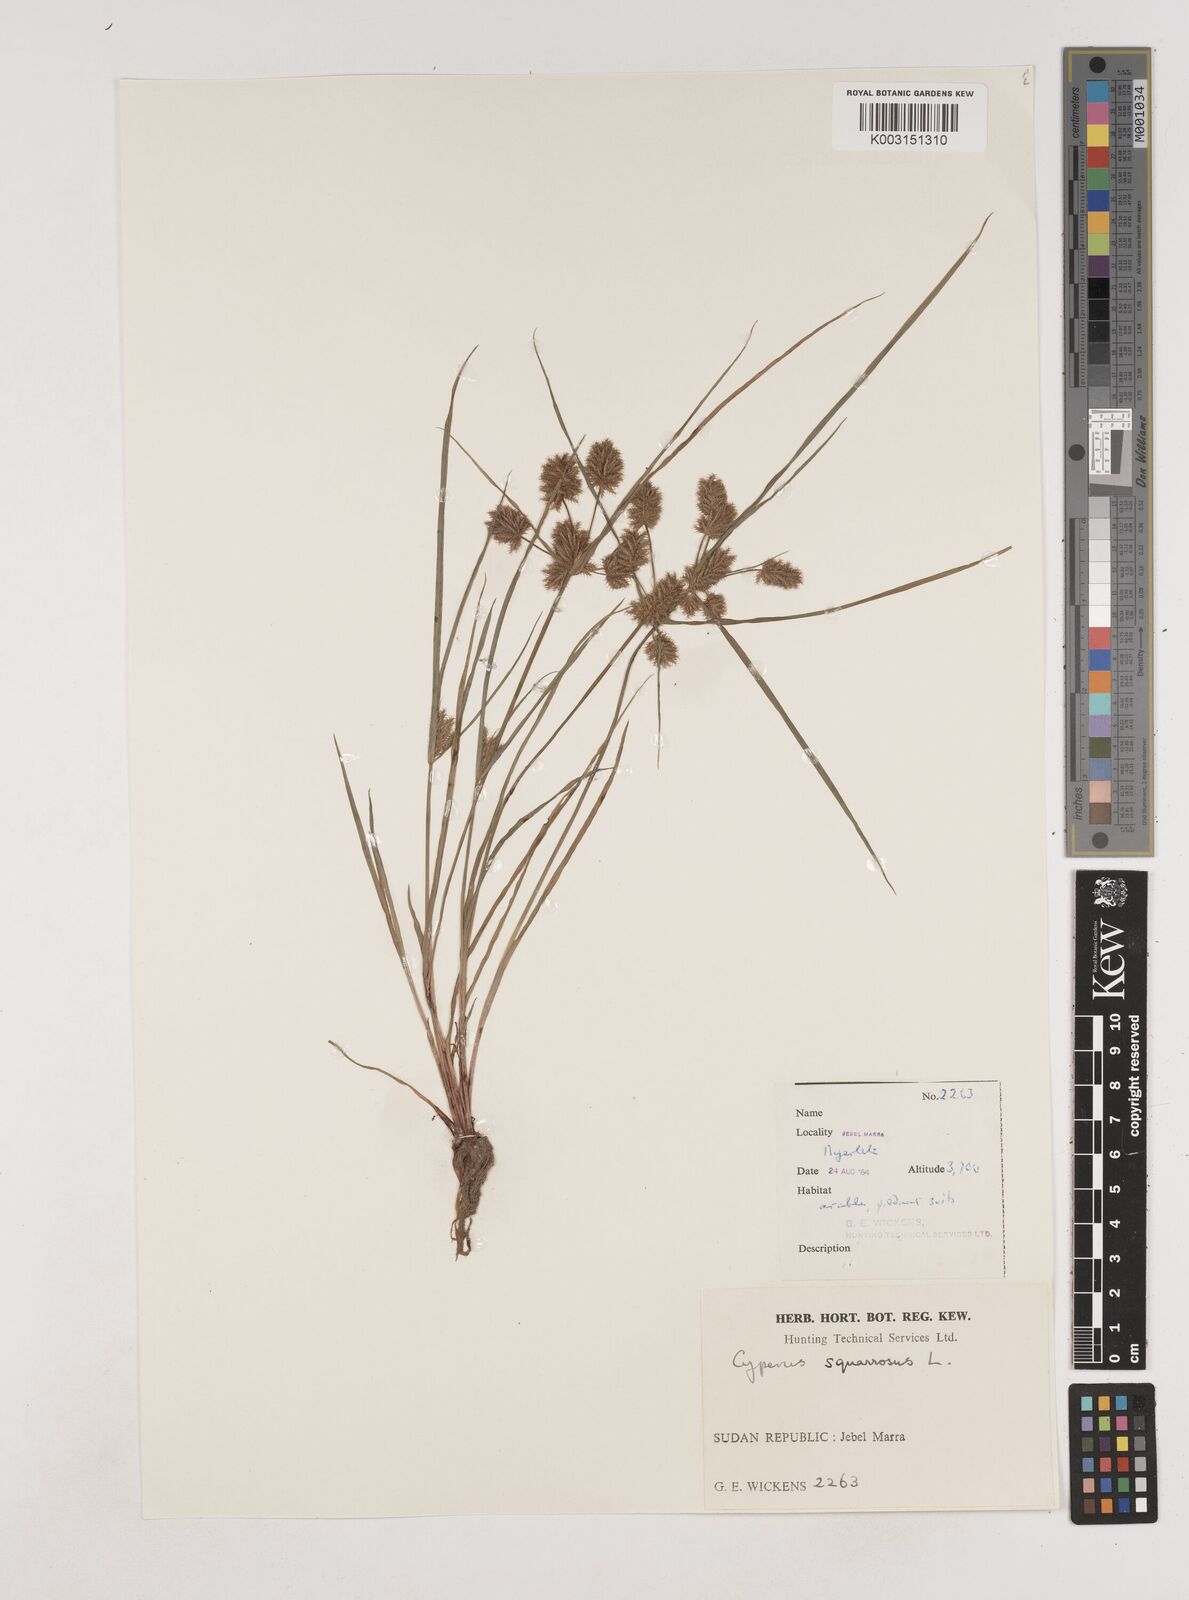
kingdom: Plantae
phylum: Tracheophyta
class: Liliopsida
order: Poales
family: Cyperaceae
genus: Cyperus
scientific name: Cyperus squarrosus
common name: Awned cyperus
